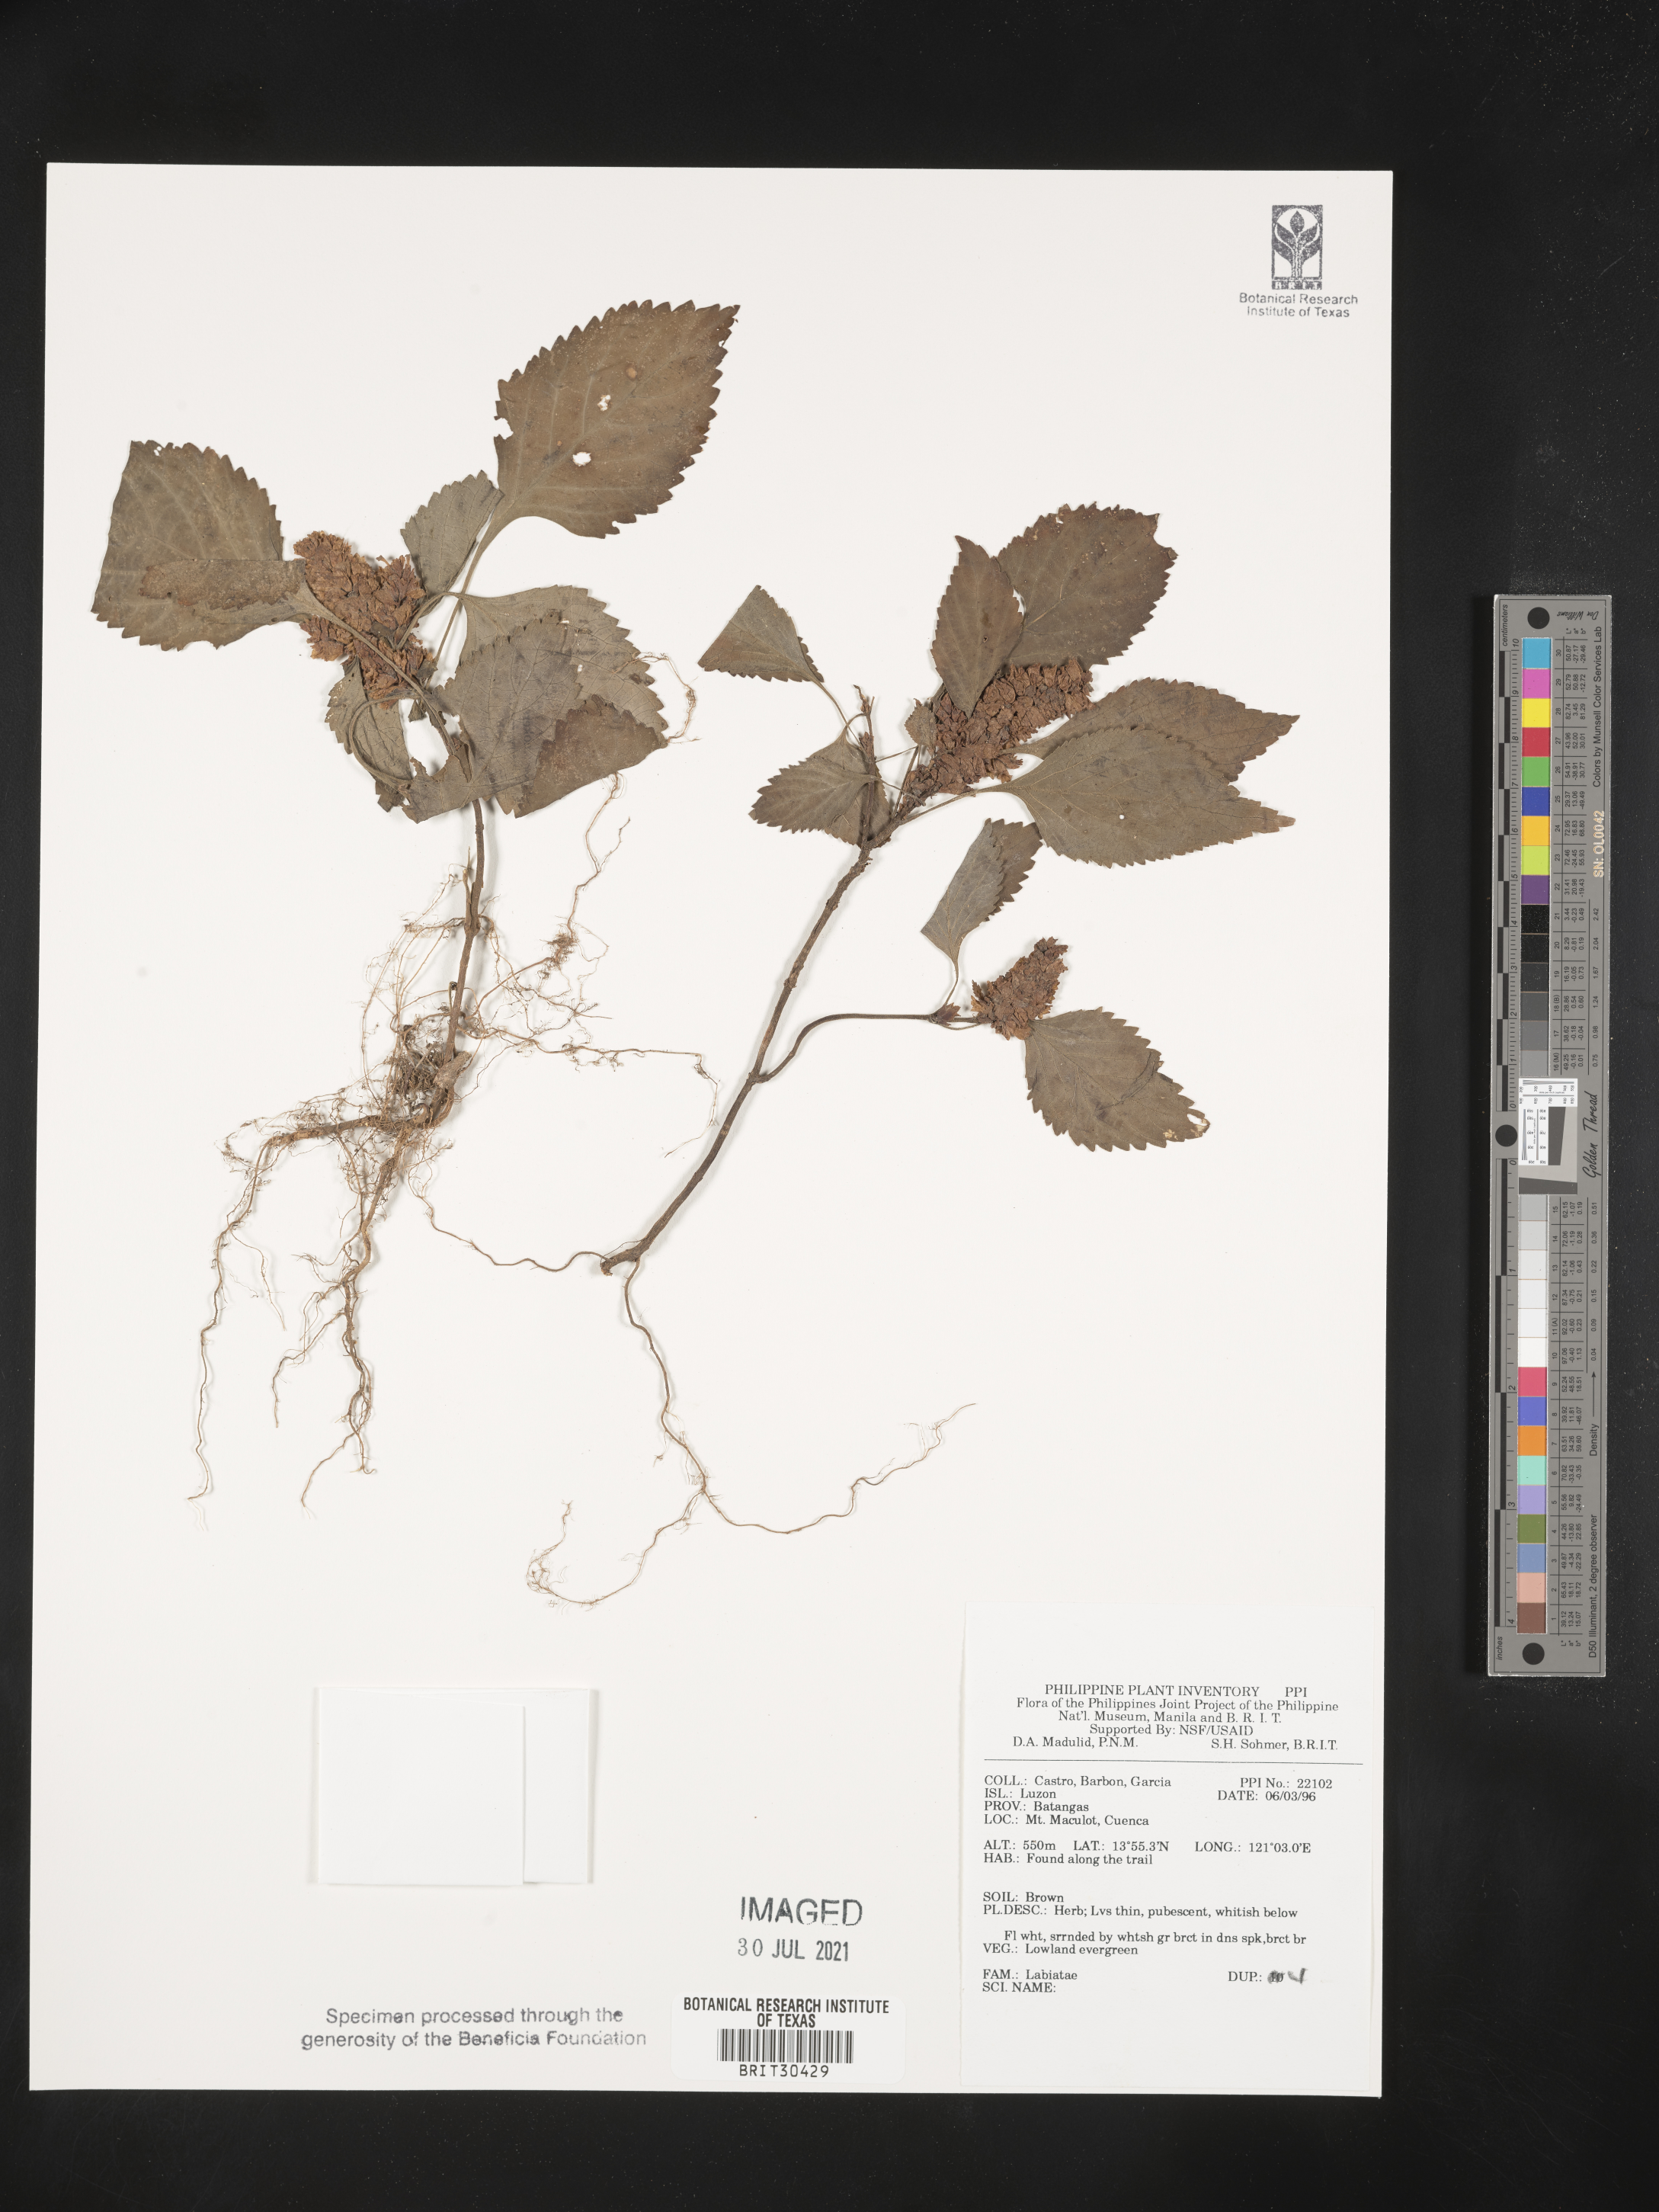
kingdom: Plantae
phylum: Tracheophyta
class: Magnoliopsida
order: Lamiales
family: Lamiaceae
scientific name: Lamiaceae
